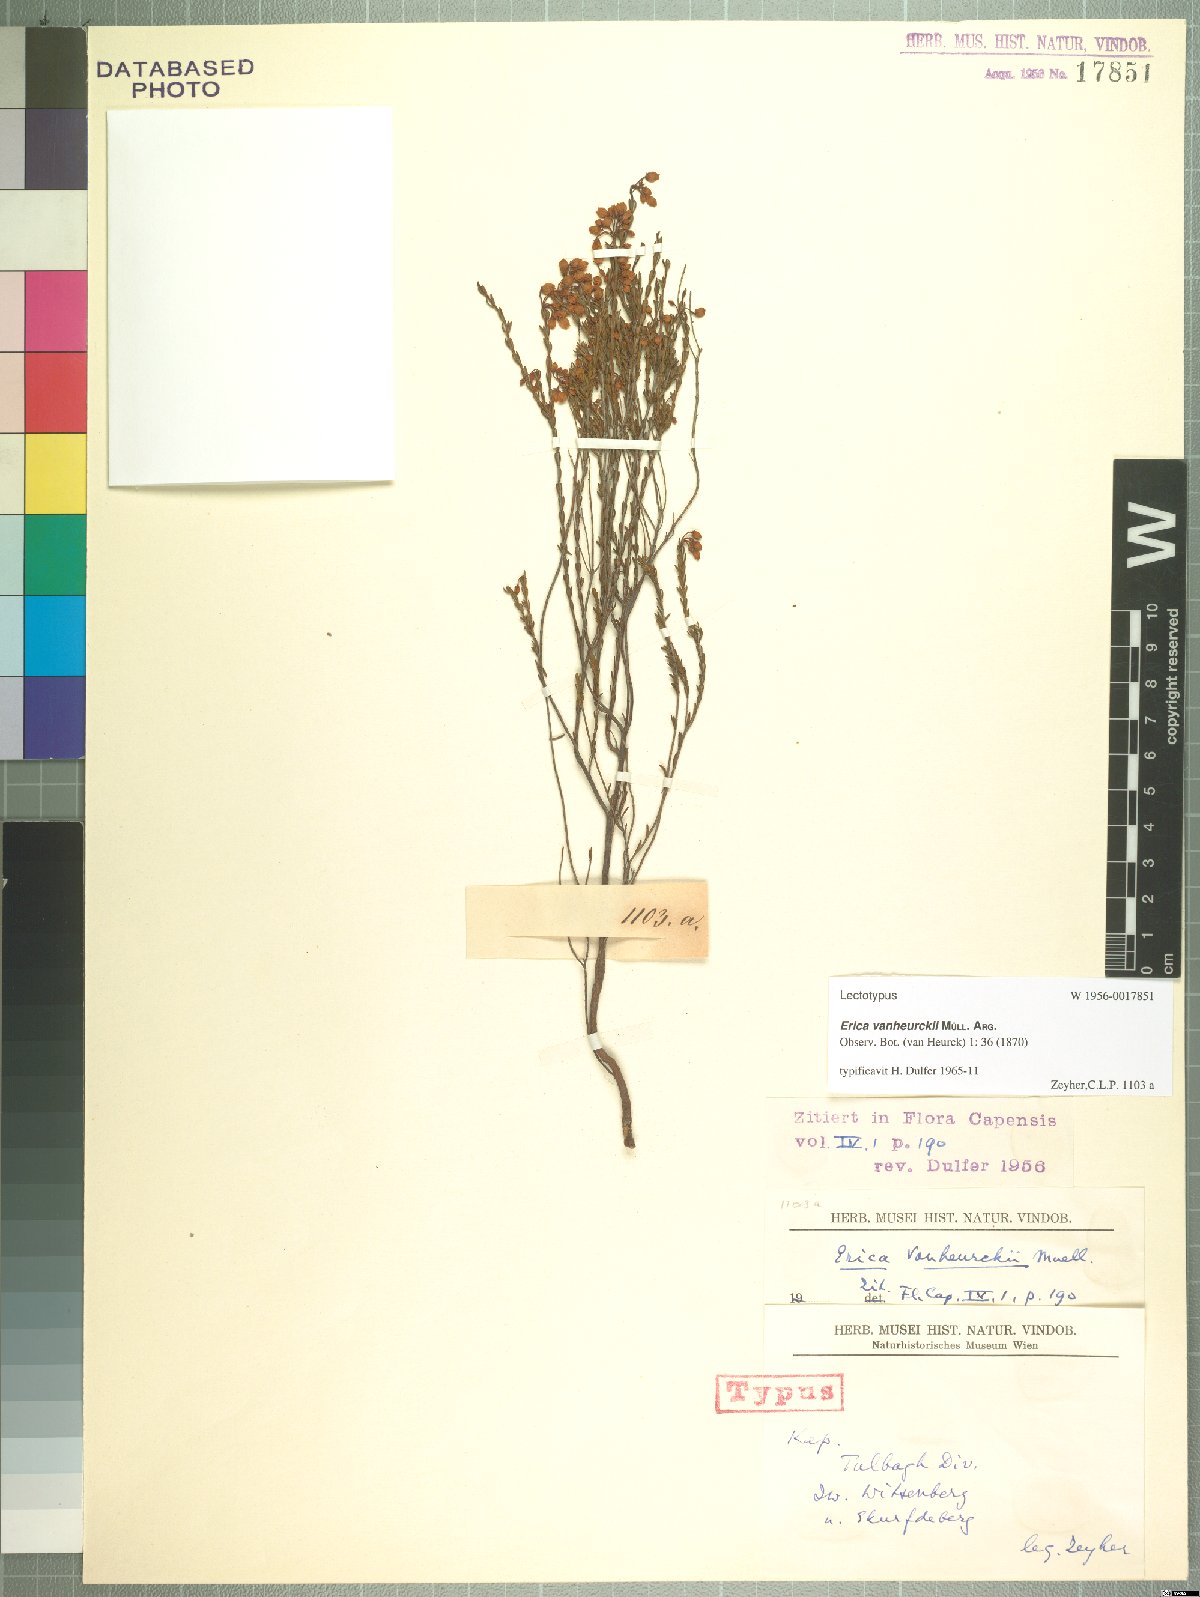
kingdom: Plantae
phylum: Tracheophyta
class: Magnoliopsida
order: Ericales
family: Ericaceae
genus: Erica
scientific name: Erica vanheurckii
